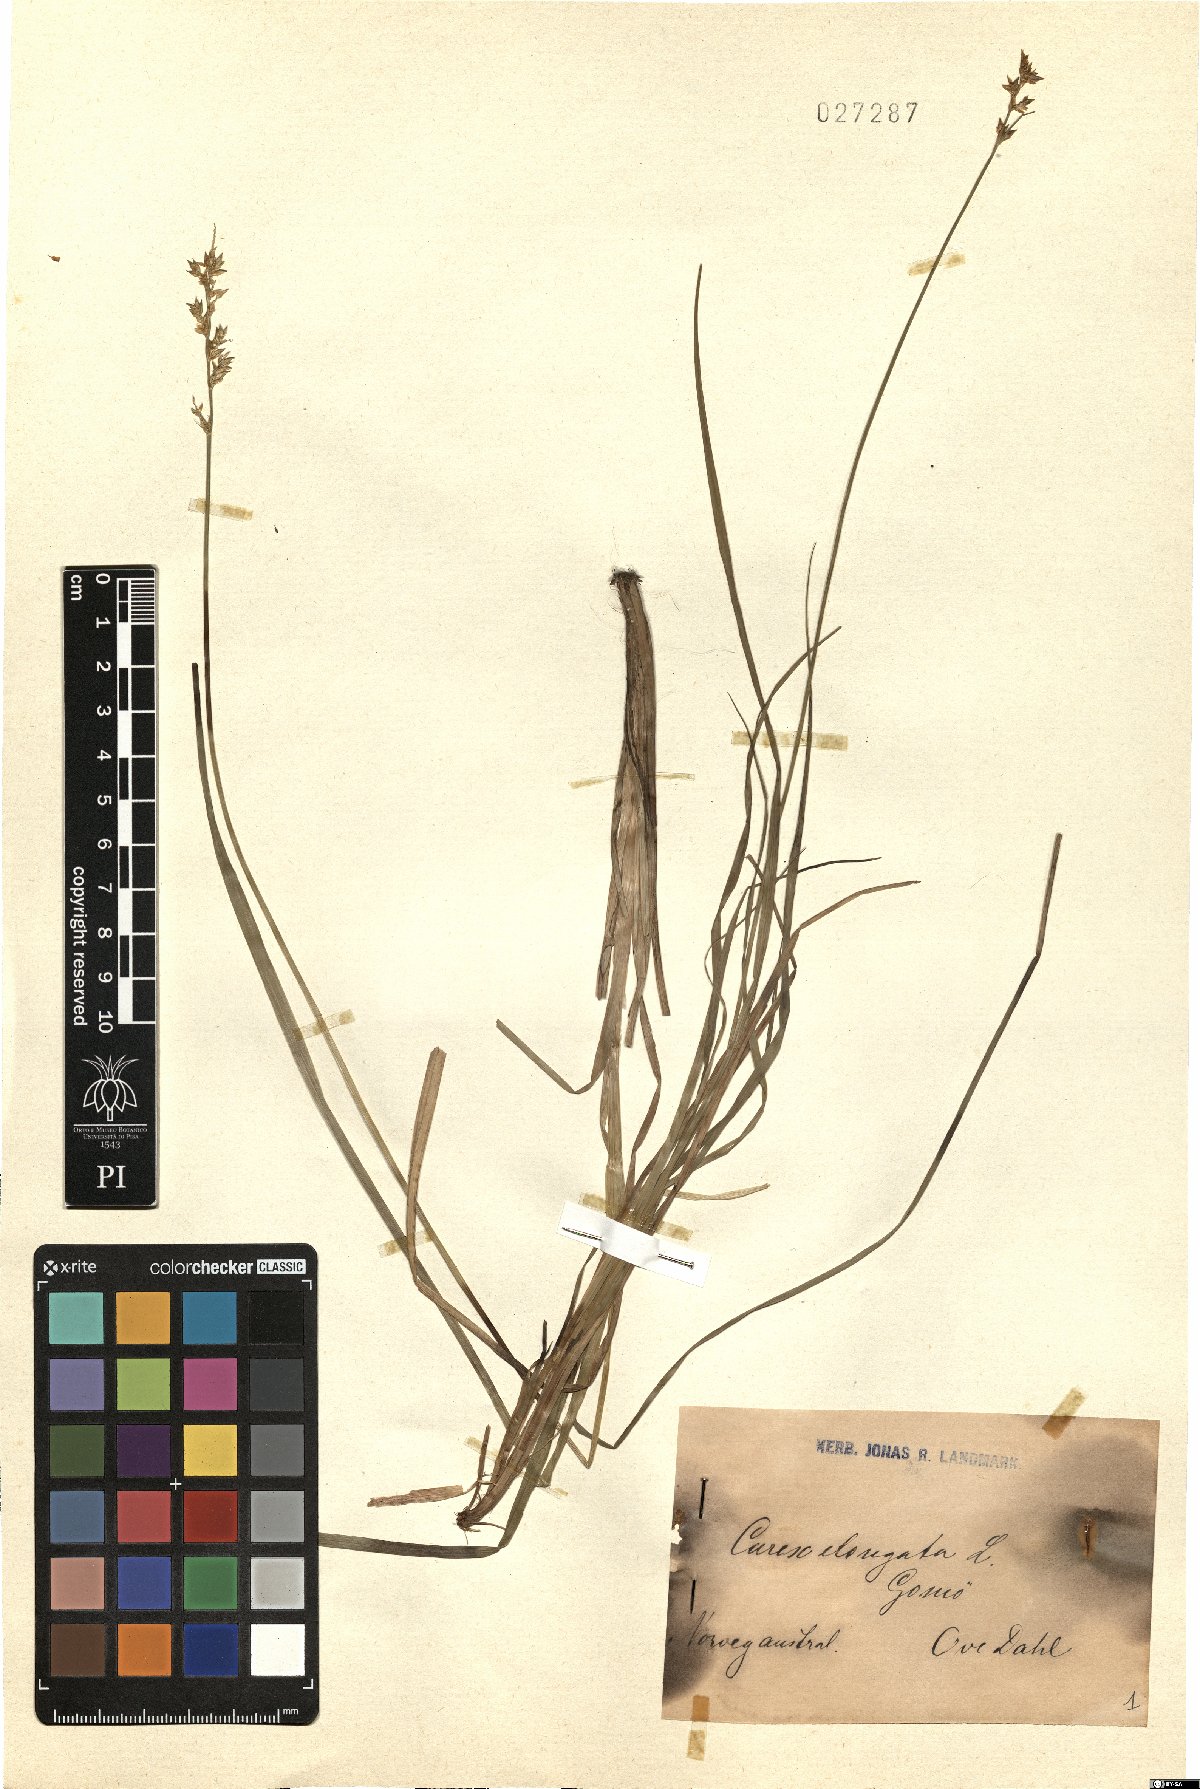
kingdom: Plantae
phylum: Tracheophyta
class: Liliopsida
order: Poales
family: Cyperaceae
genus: Carex
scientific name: Carex elongata
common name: Elongated sedge
